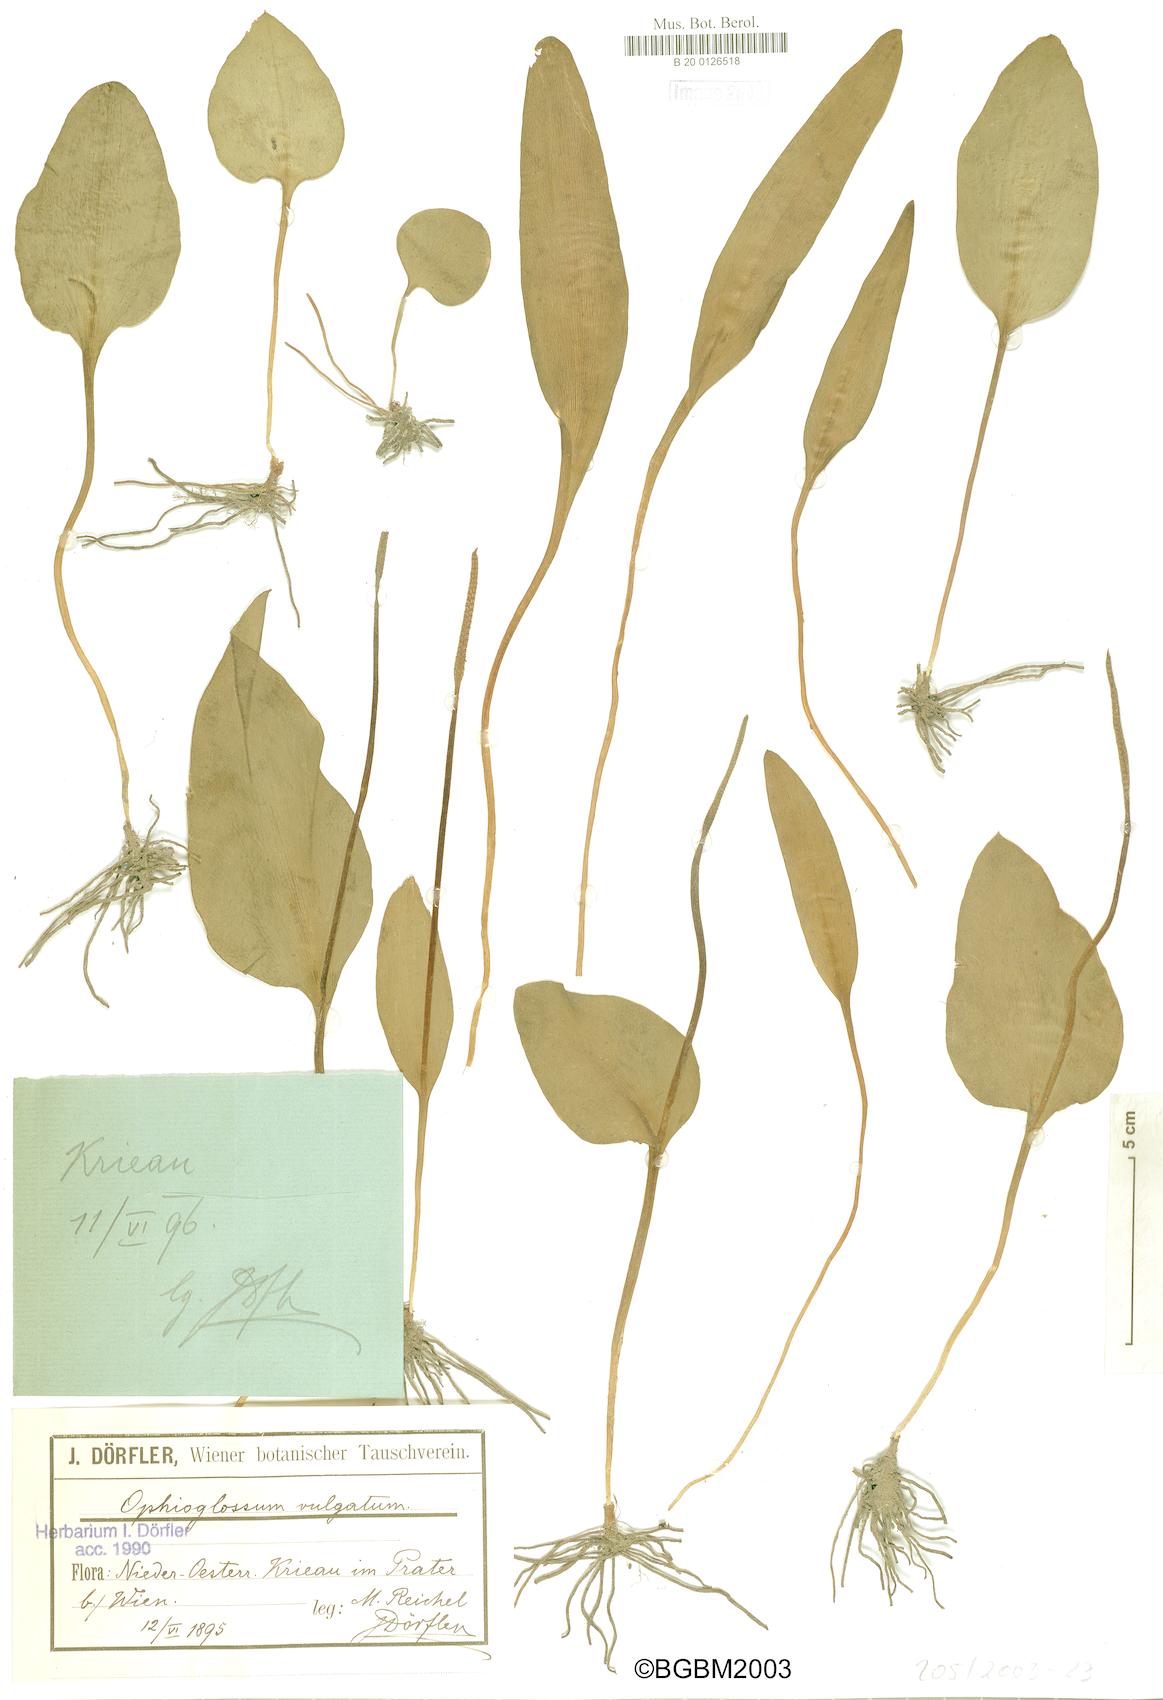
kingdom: Plantae
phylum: Tracheophyta
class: Polypodiopsida
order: Ophioglossales
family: Ophioglossaceae
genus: Ophioglossum
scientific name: Ophioglossum vulgatum
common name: Adder's-tongue
